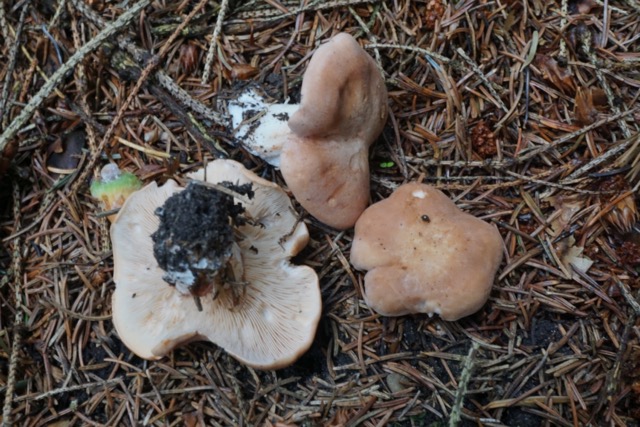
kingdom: Fungi
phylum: Basidiomycota
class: Agaricomycetes
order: Agaricales
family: Entolomataceae
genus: Clitopilus
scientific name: Clitopilus geminus
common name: kødfarvet troldhat
